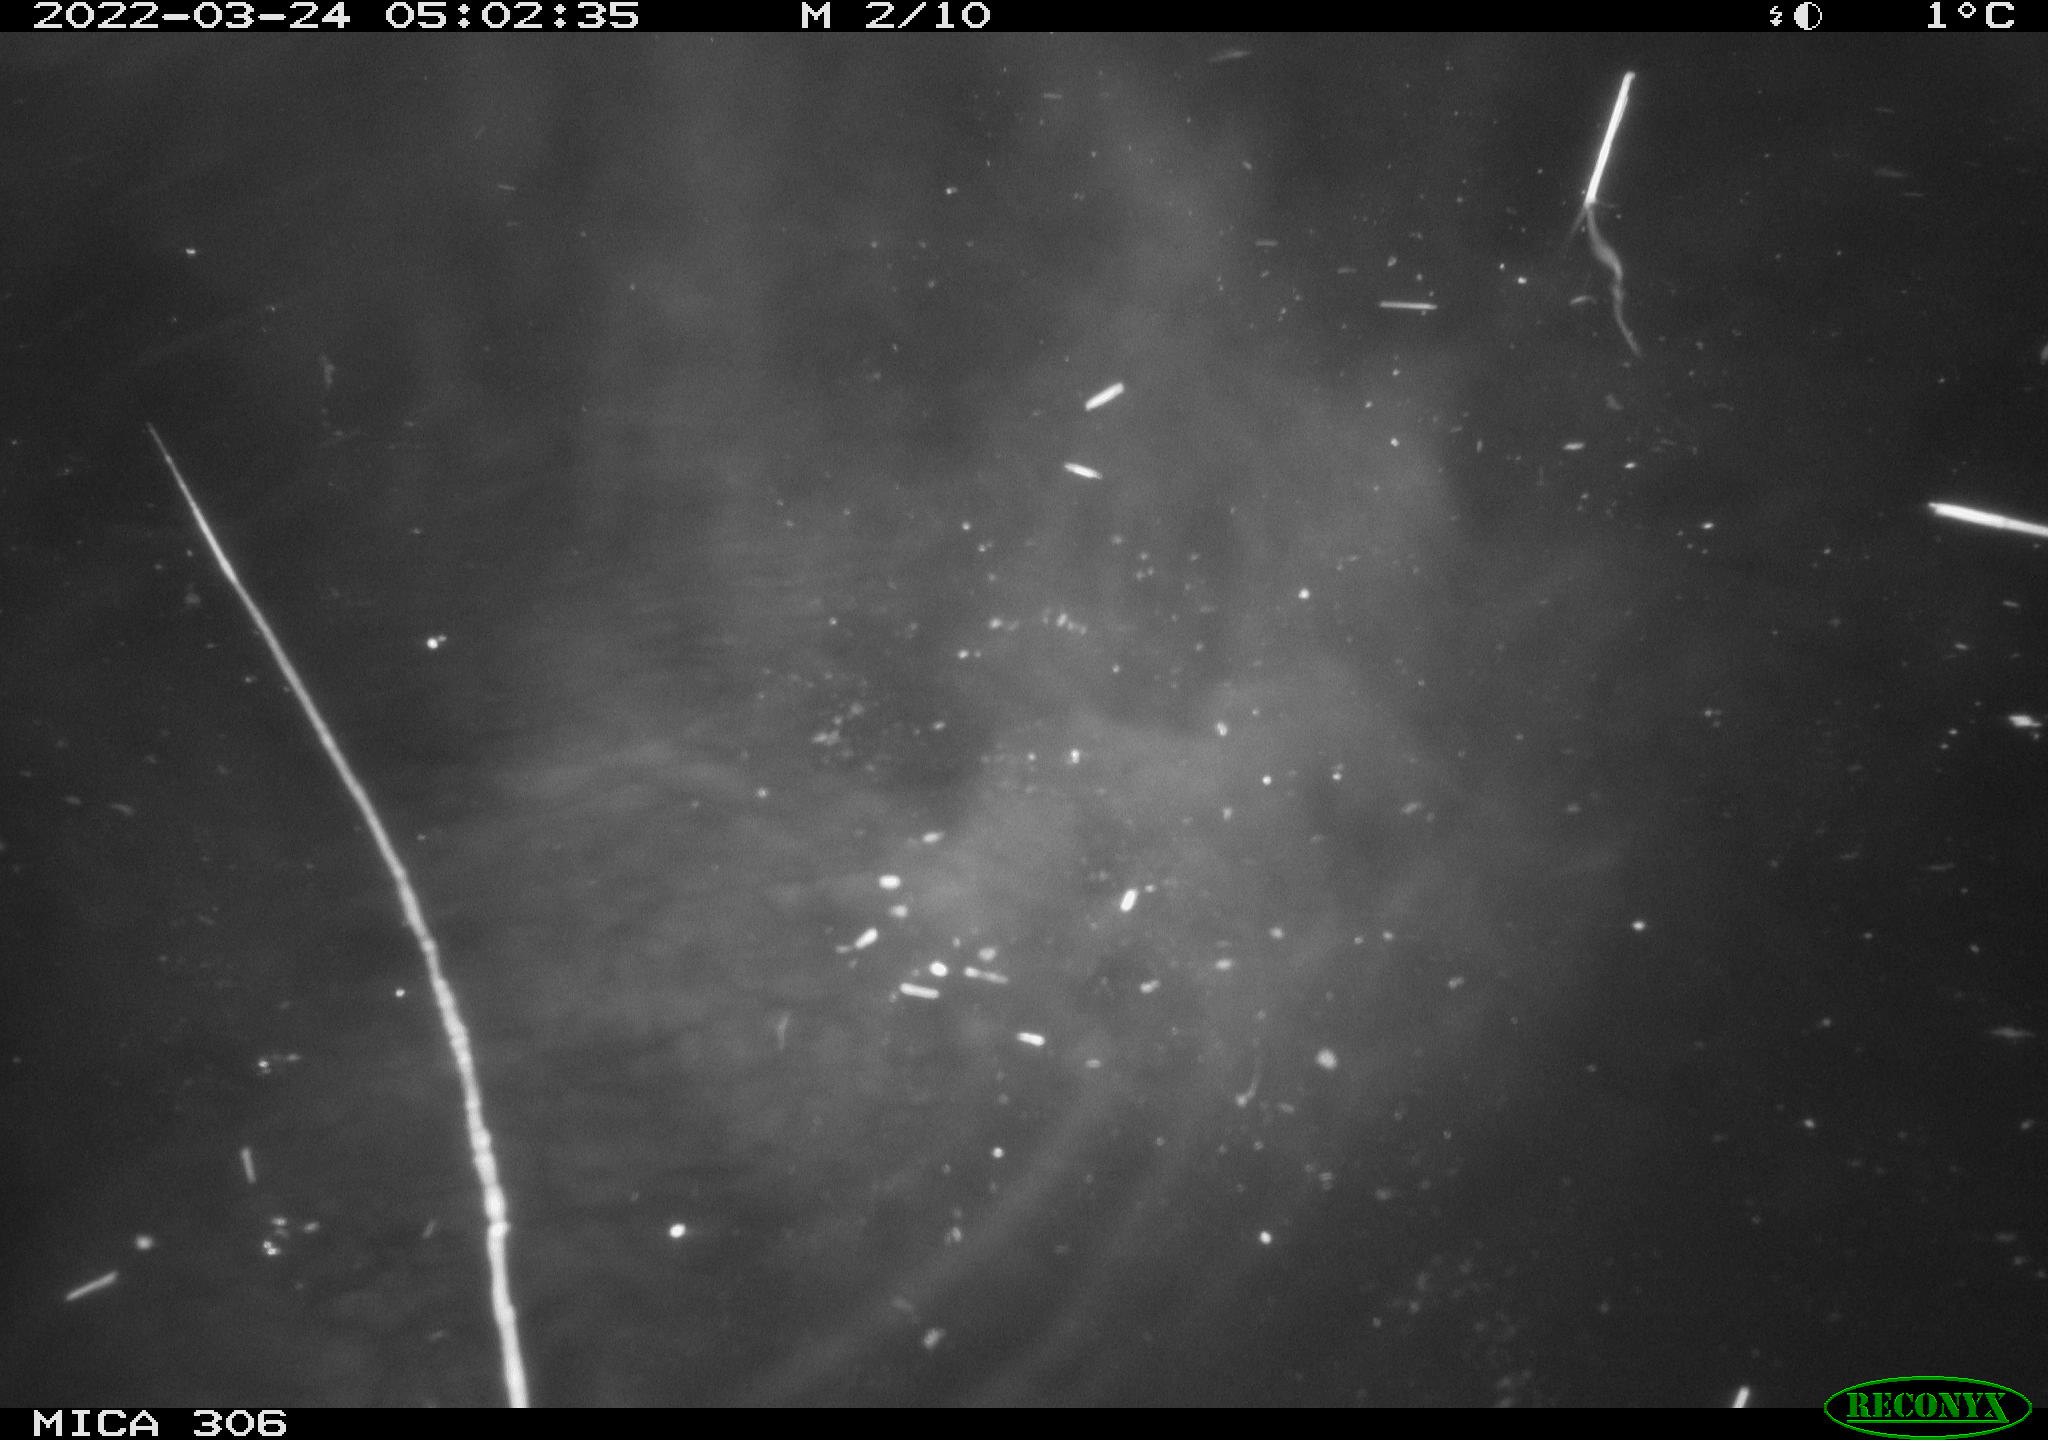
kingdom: Animalia
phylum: Chordata
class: Mammalia
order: Rodentia
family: Cricetidae
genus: Ondatra
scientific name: Ondatra zibethicus
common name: Muskrat
